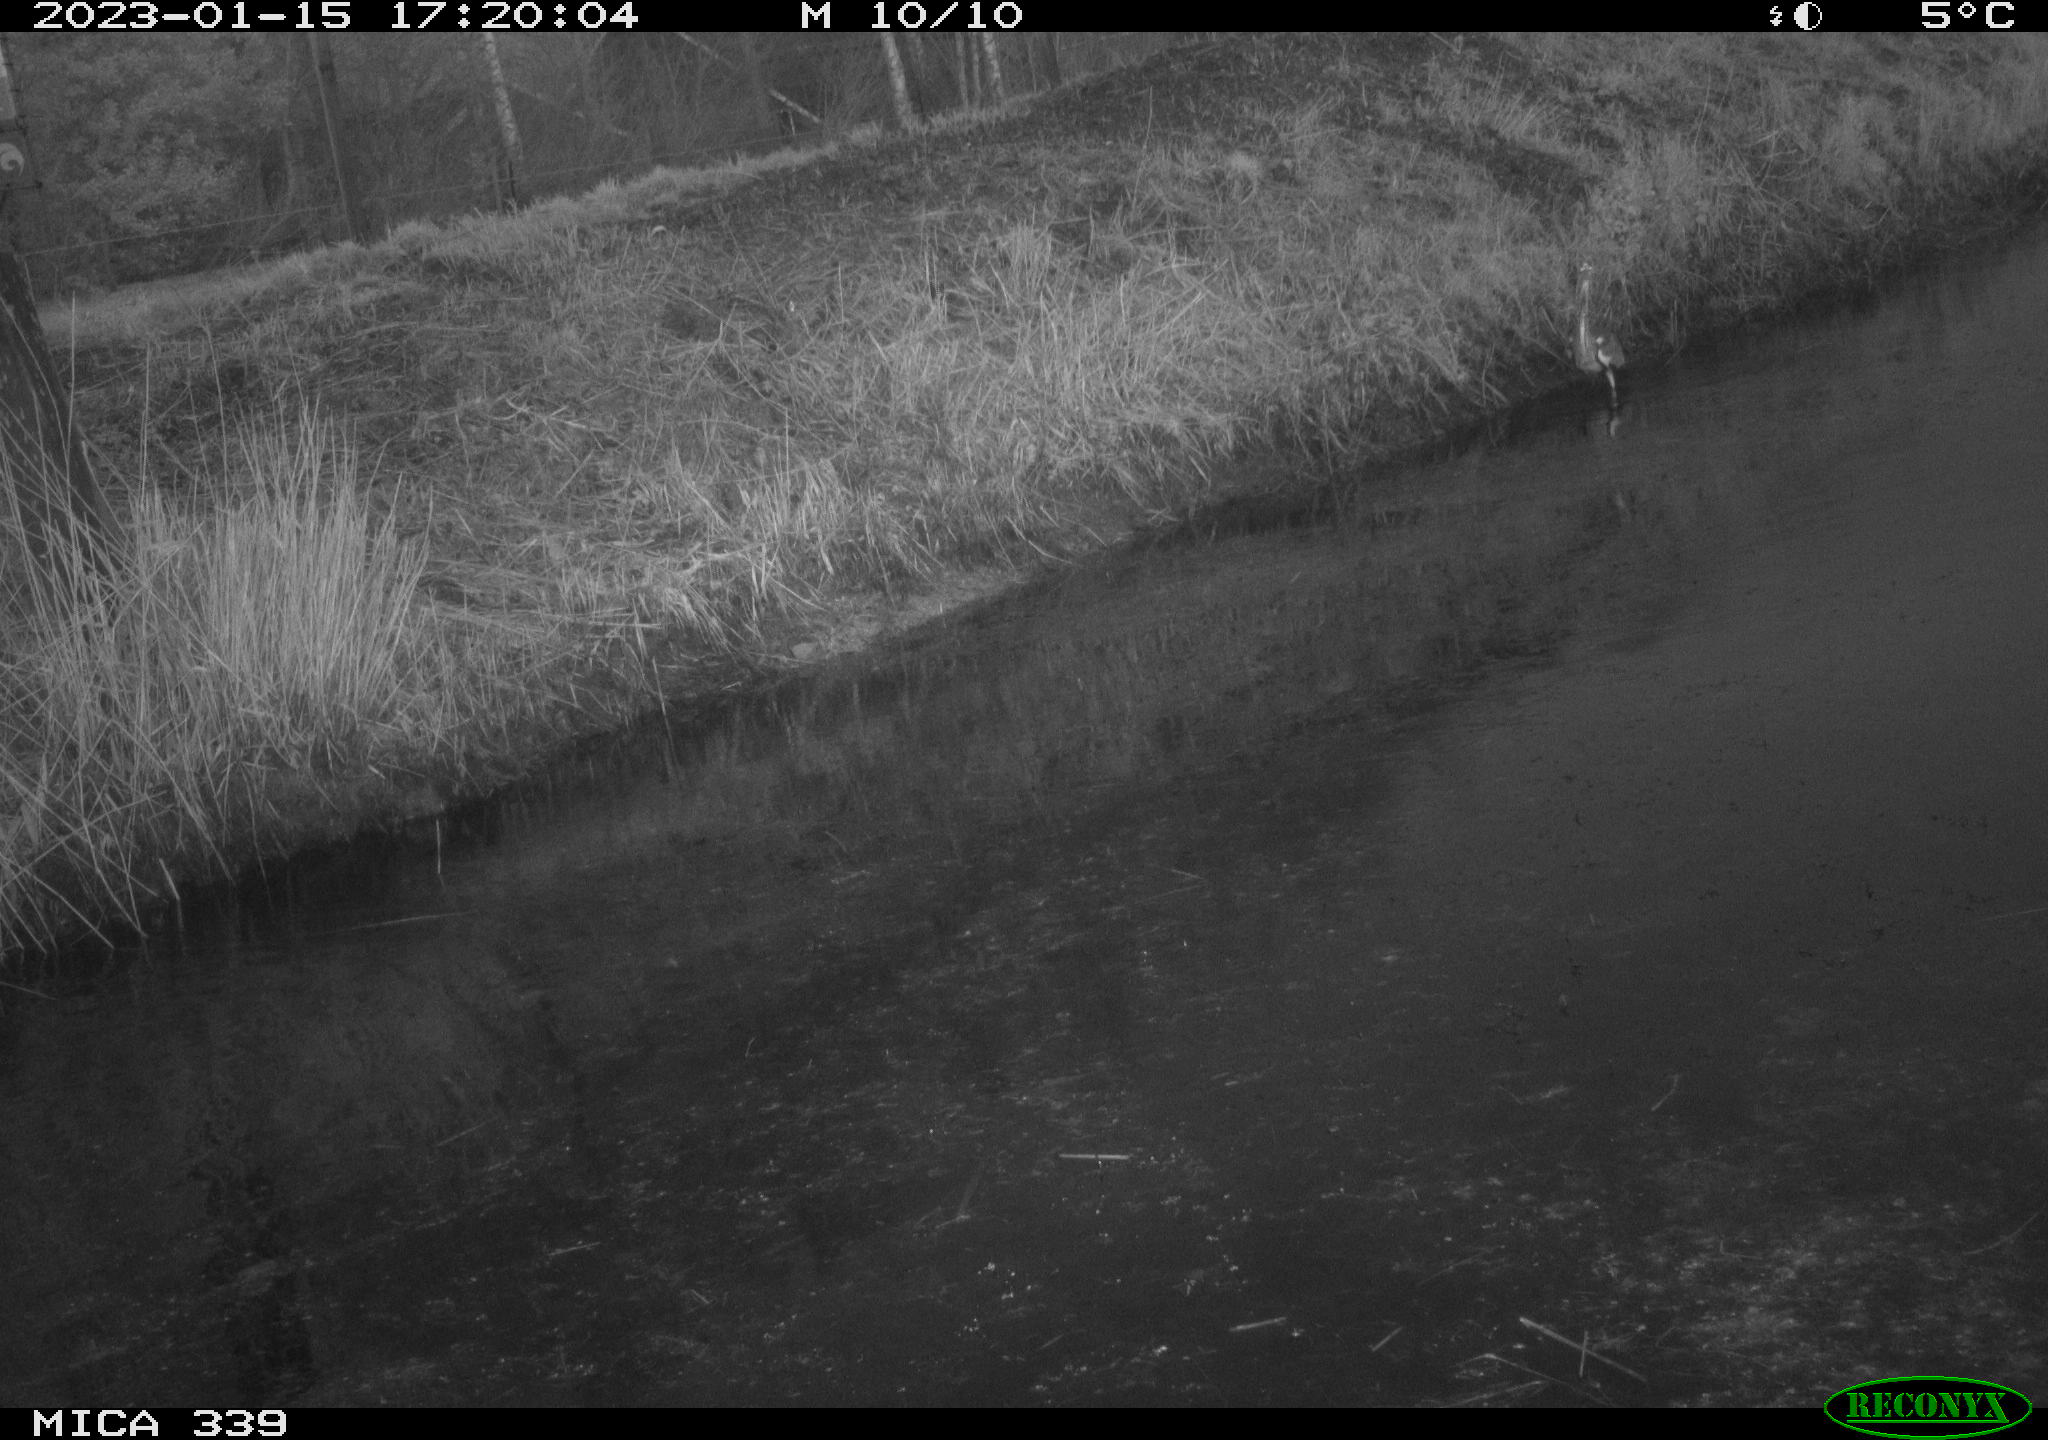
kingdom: Animalia
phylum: Chordata
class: Aves
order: Pelecaniformes
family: Ardeidae
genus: Ardea
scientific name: Ardea cinerea
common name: Grey heron
